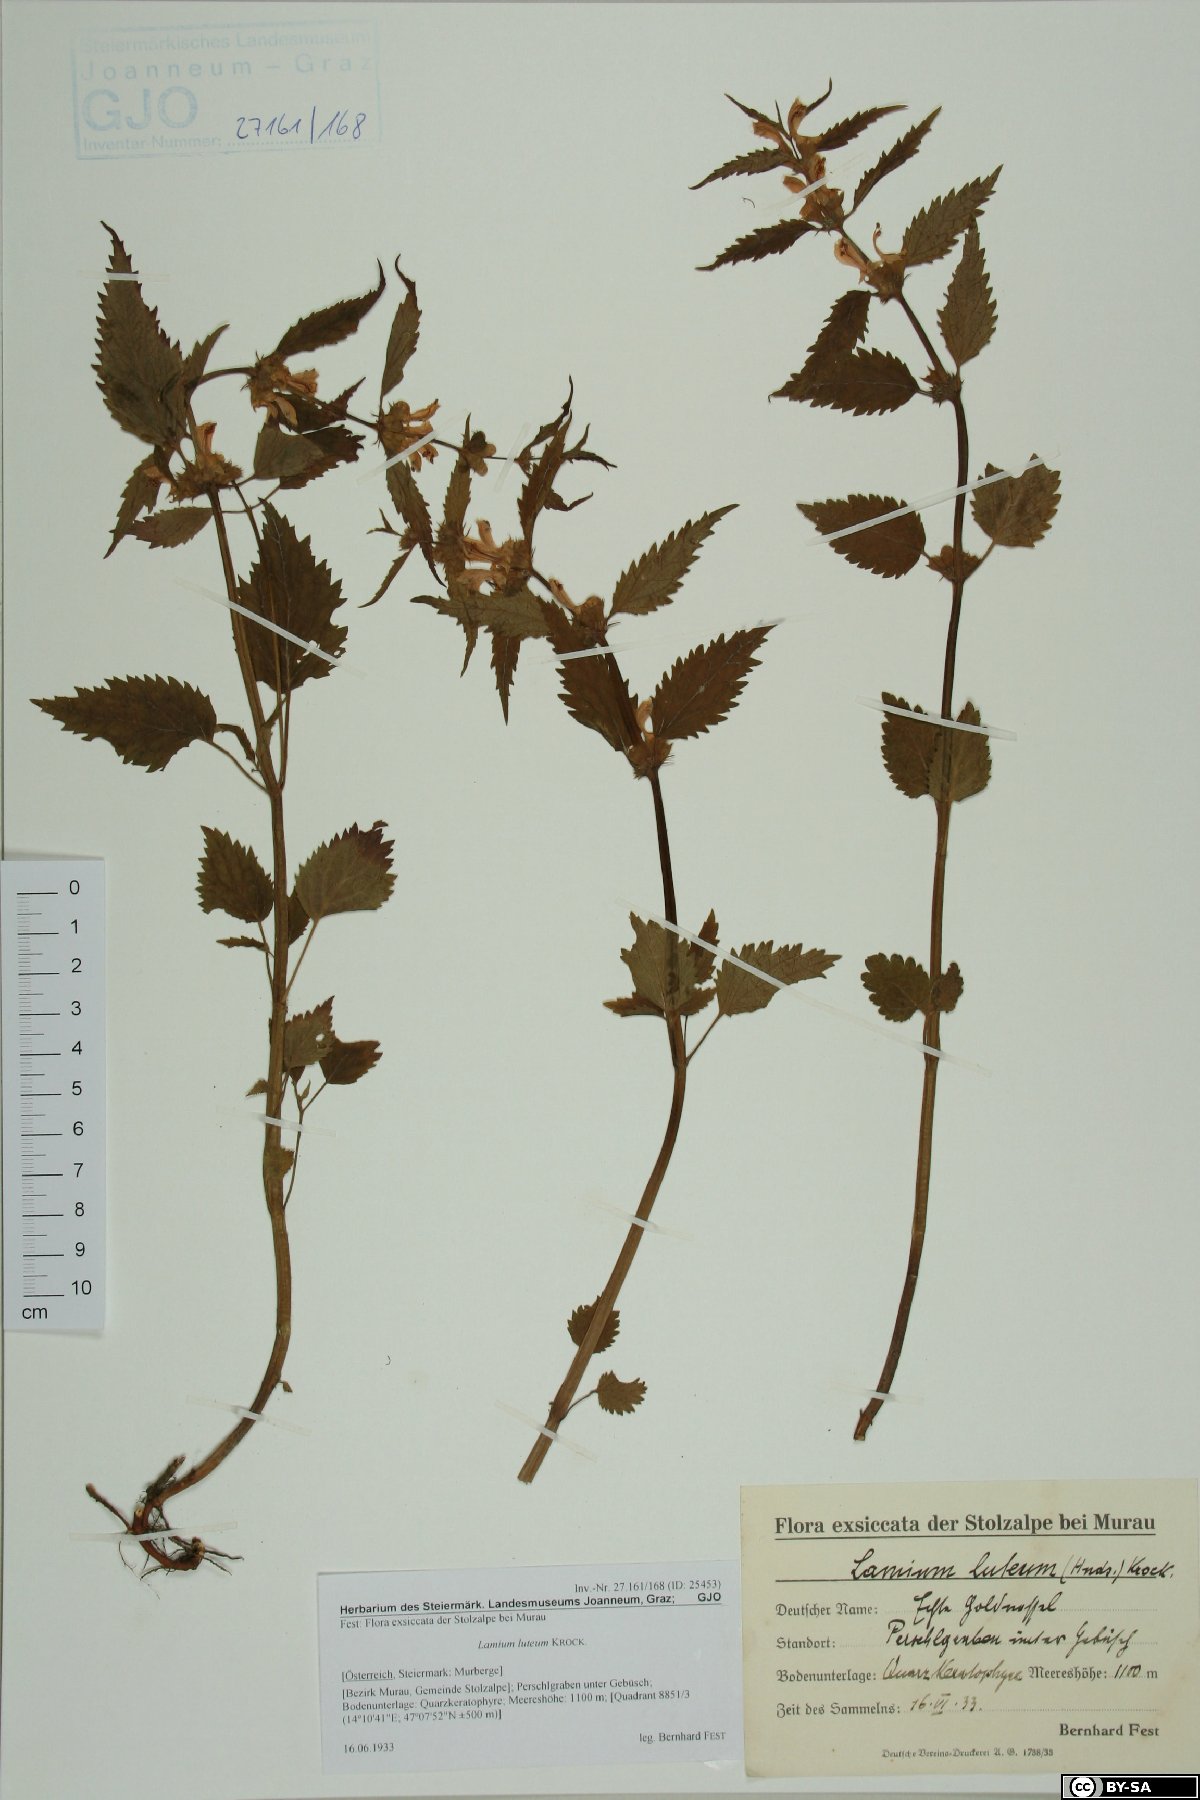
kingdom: Plantae
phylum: Tracheophyta
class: Magnoliopsida
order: Lamiales
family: Lamiaceae
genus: Lamium
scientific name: Lamium galeobdolon
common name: Yellow archangel
